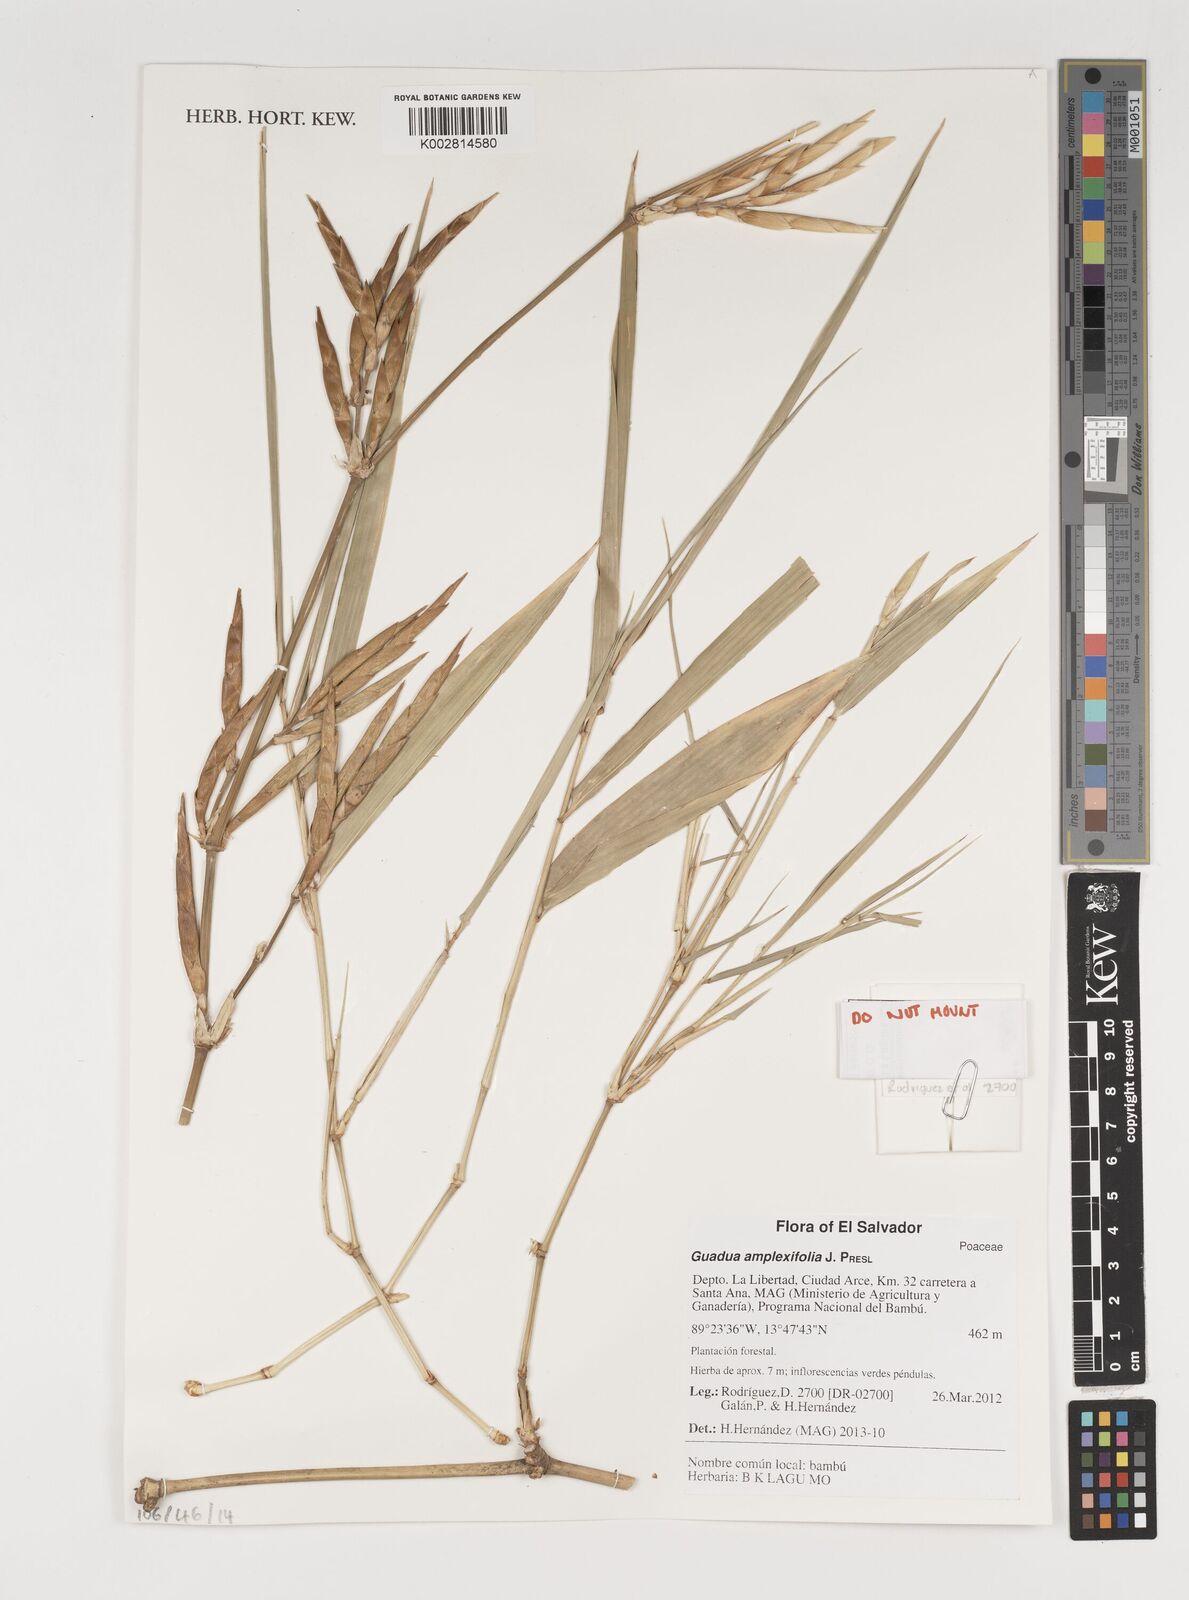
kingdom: Plantae
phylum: Tracheophyta
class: Liliopsida
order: Poales
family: Poaceae
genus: Guadua
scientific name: Guadua amplexifolia
